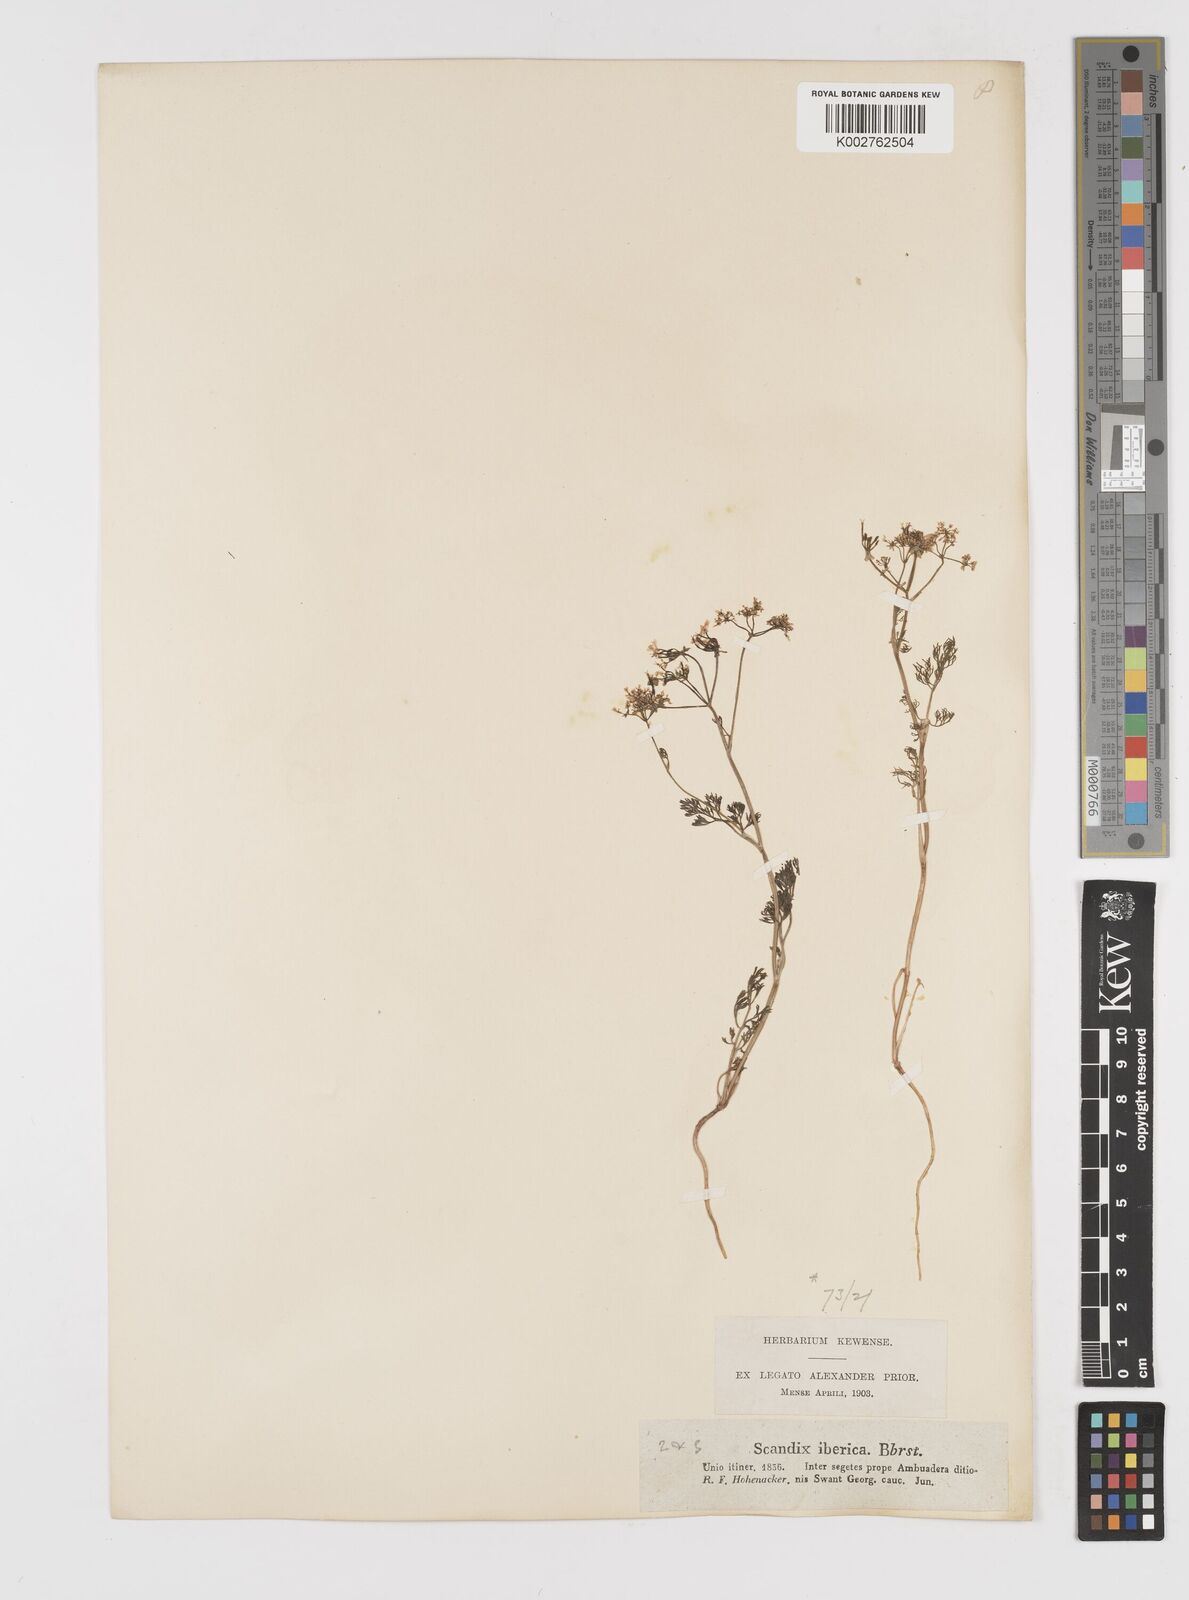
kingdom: Plantae
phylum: Tracheophyta
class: Magnoliopsida
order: Apiales
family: Apiaceae
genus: Scandix
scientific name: Scandix iberica
